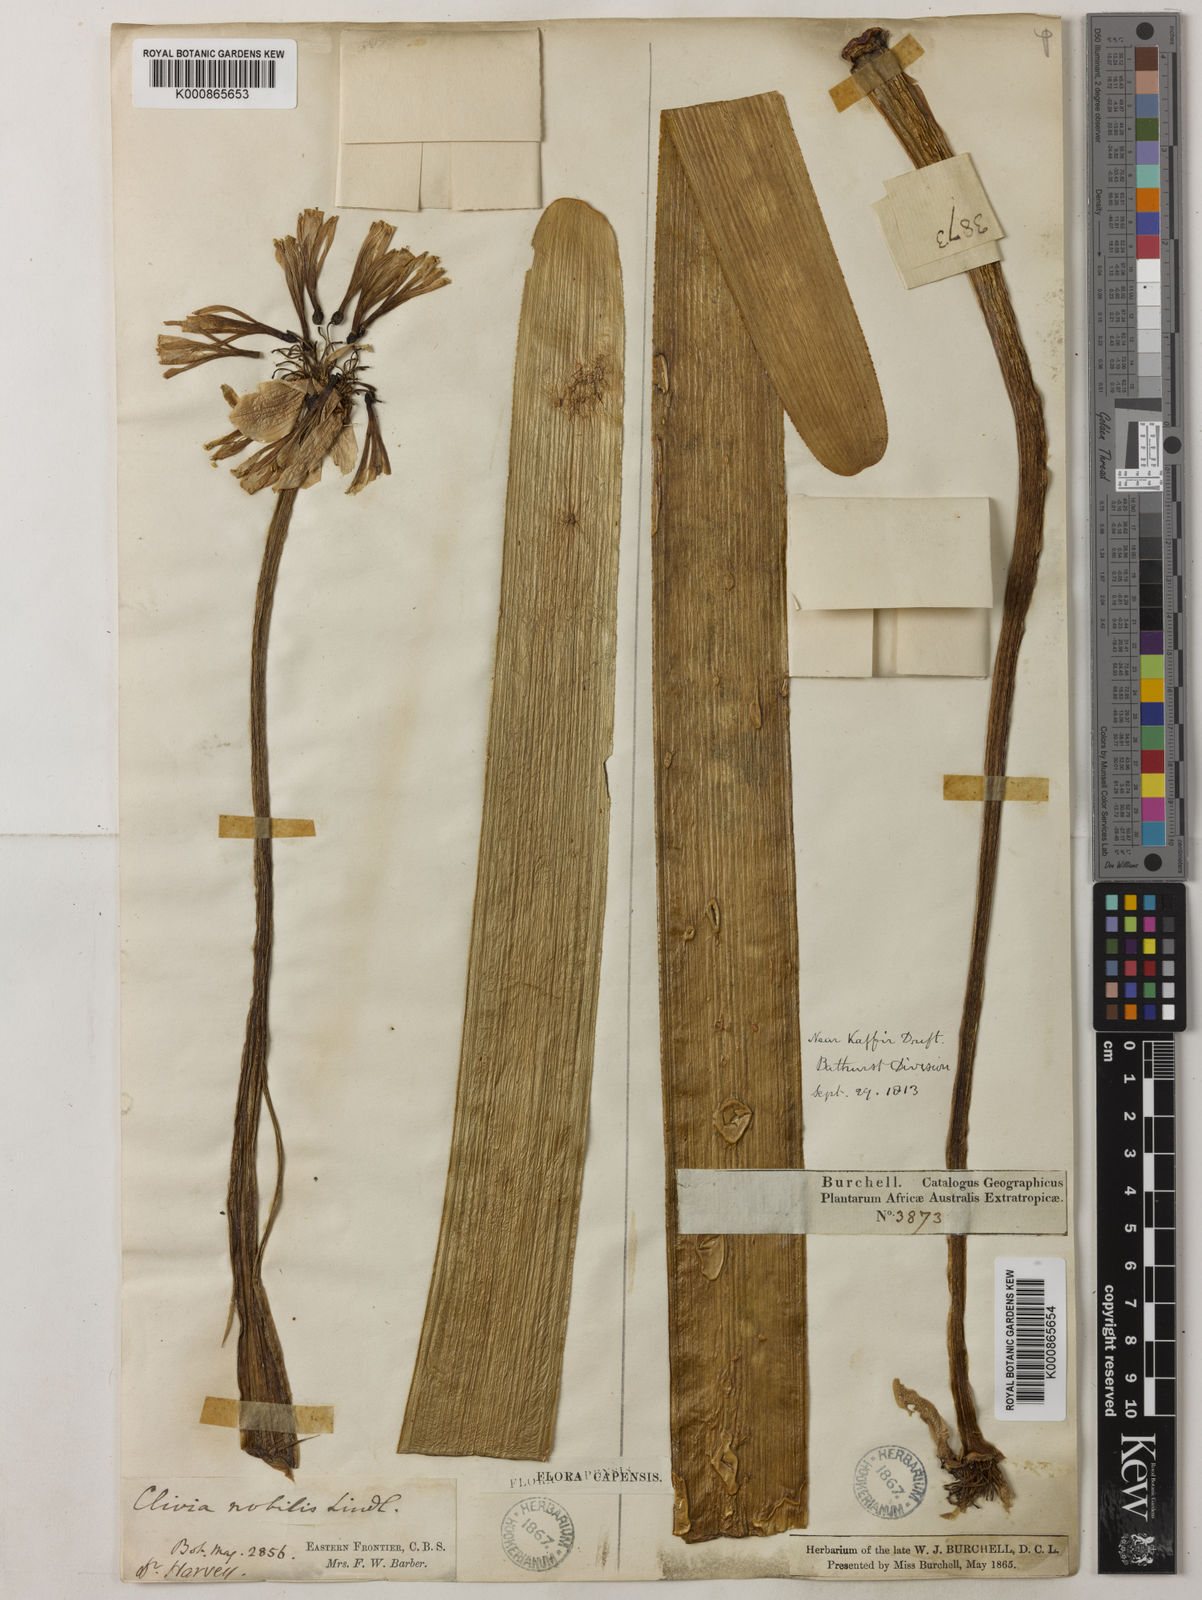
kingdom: Plantae
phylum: Tracheophyta
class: Liliopsida
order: Asparagales
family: Amaryllidaceae
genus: Clivia
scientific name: Clivia nobilis
